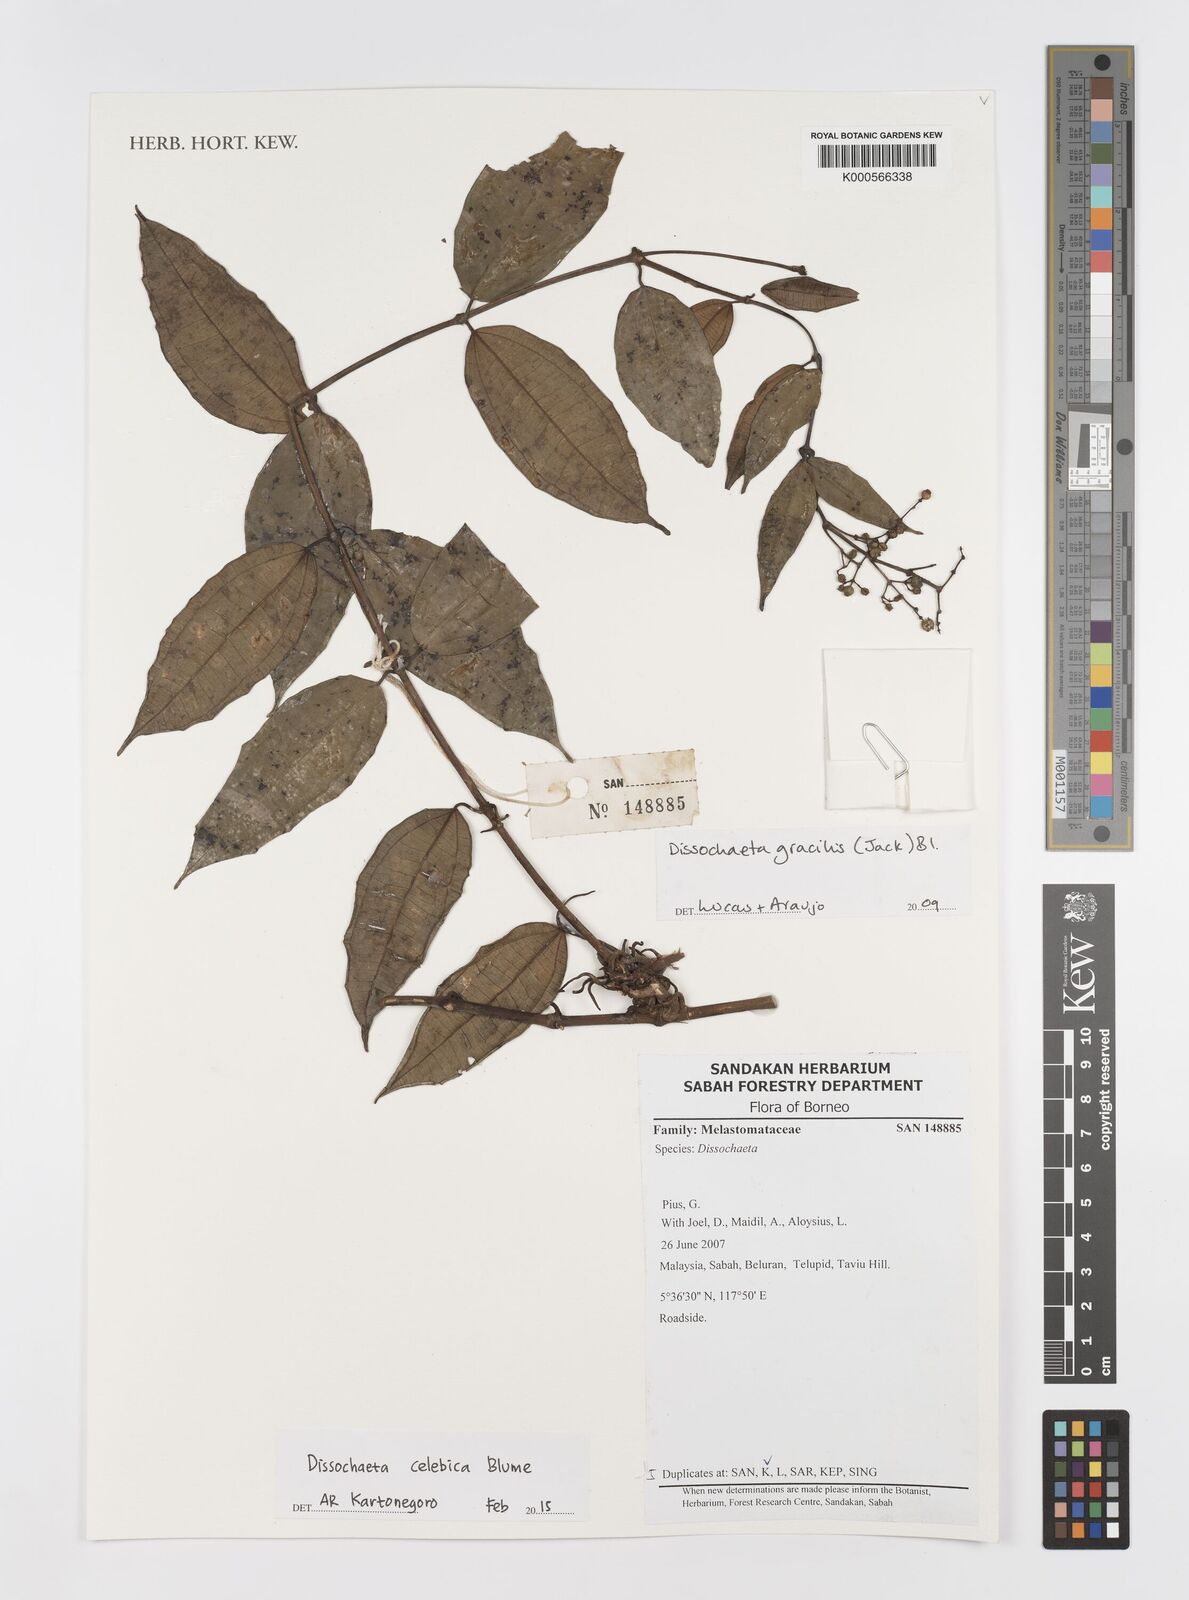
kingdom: Plantae
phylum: Tracheophyta
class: Magnoliopsida
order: Myrtales
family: Melastomataceae
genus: Dissochaeta
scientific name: Dissochaeta celebica
